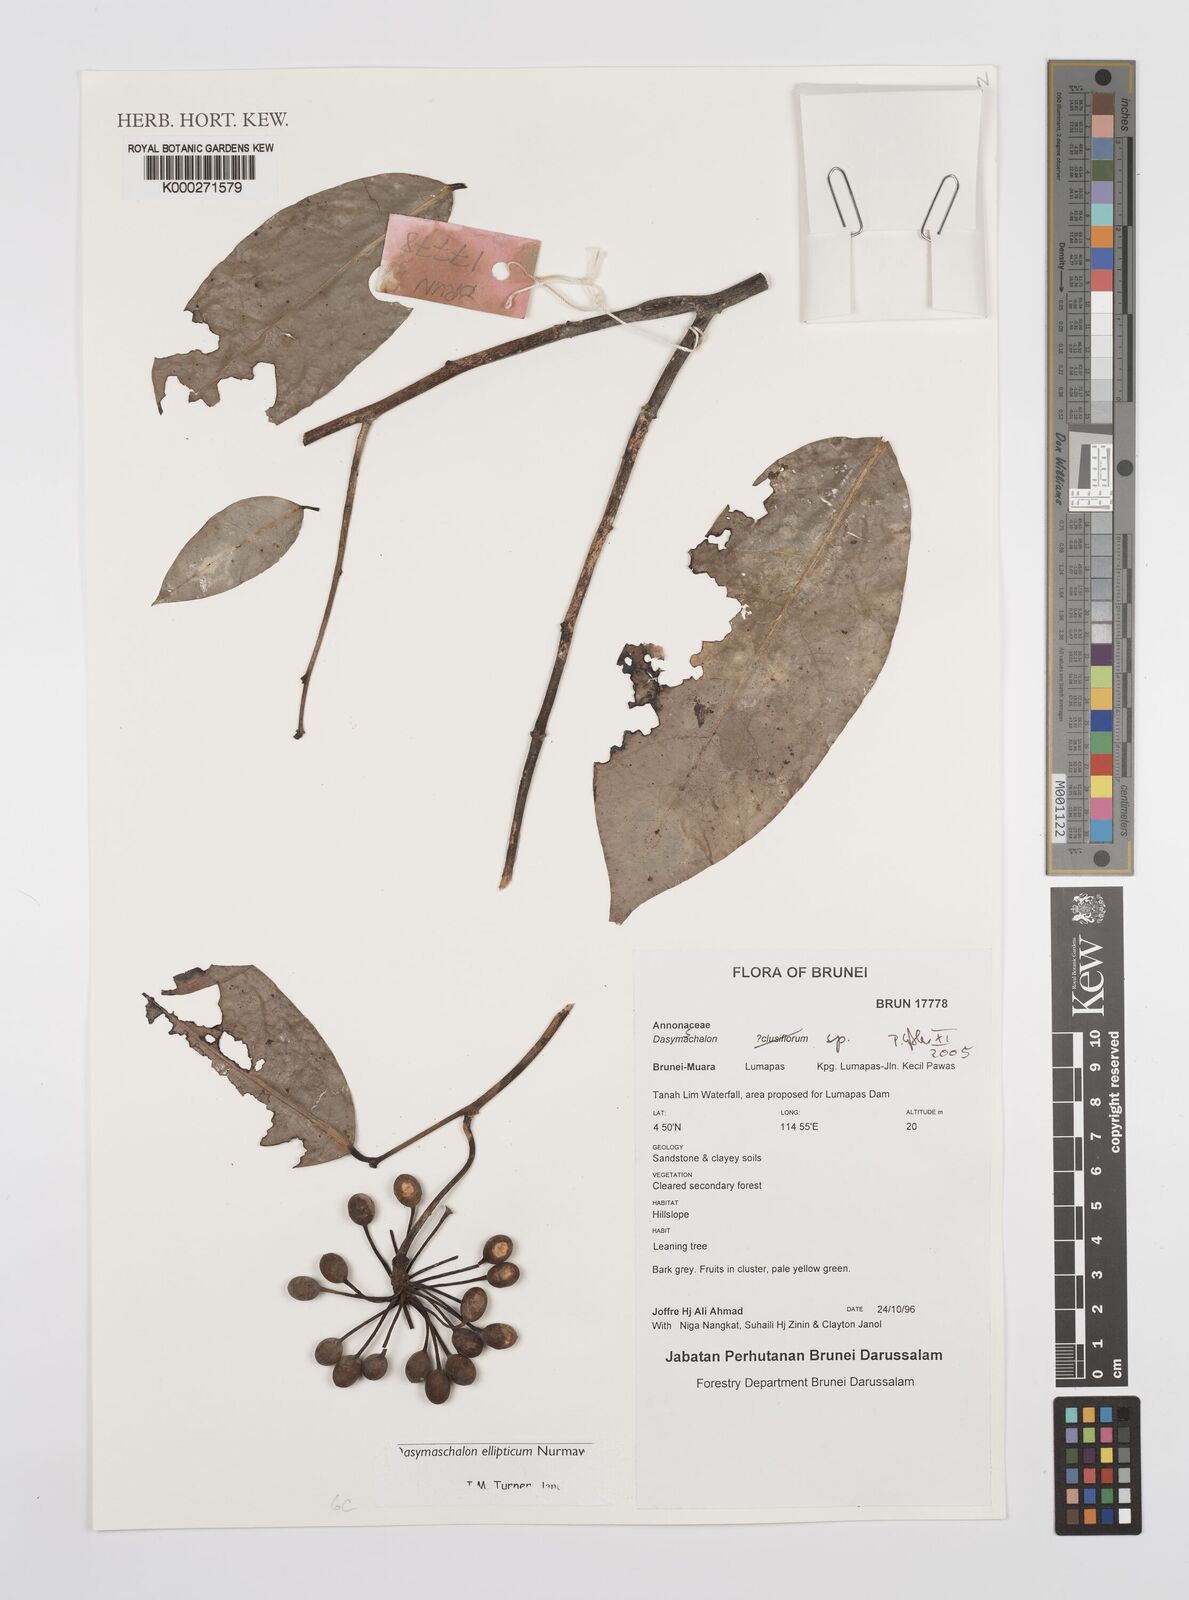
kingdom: Plantae
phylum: Tracheophyta
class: Magnoliopsida
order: Magnoliales
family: Annonaceae
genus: Dasymaschalon
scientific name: Dasymaschalon ellipticum
